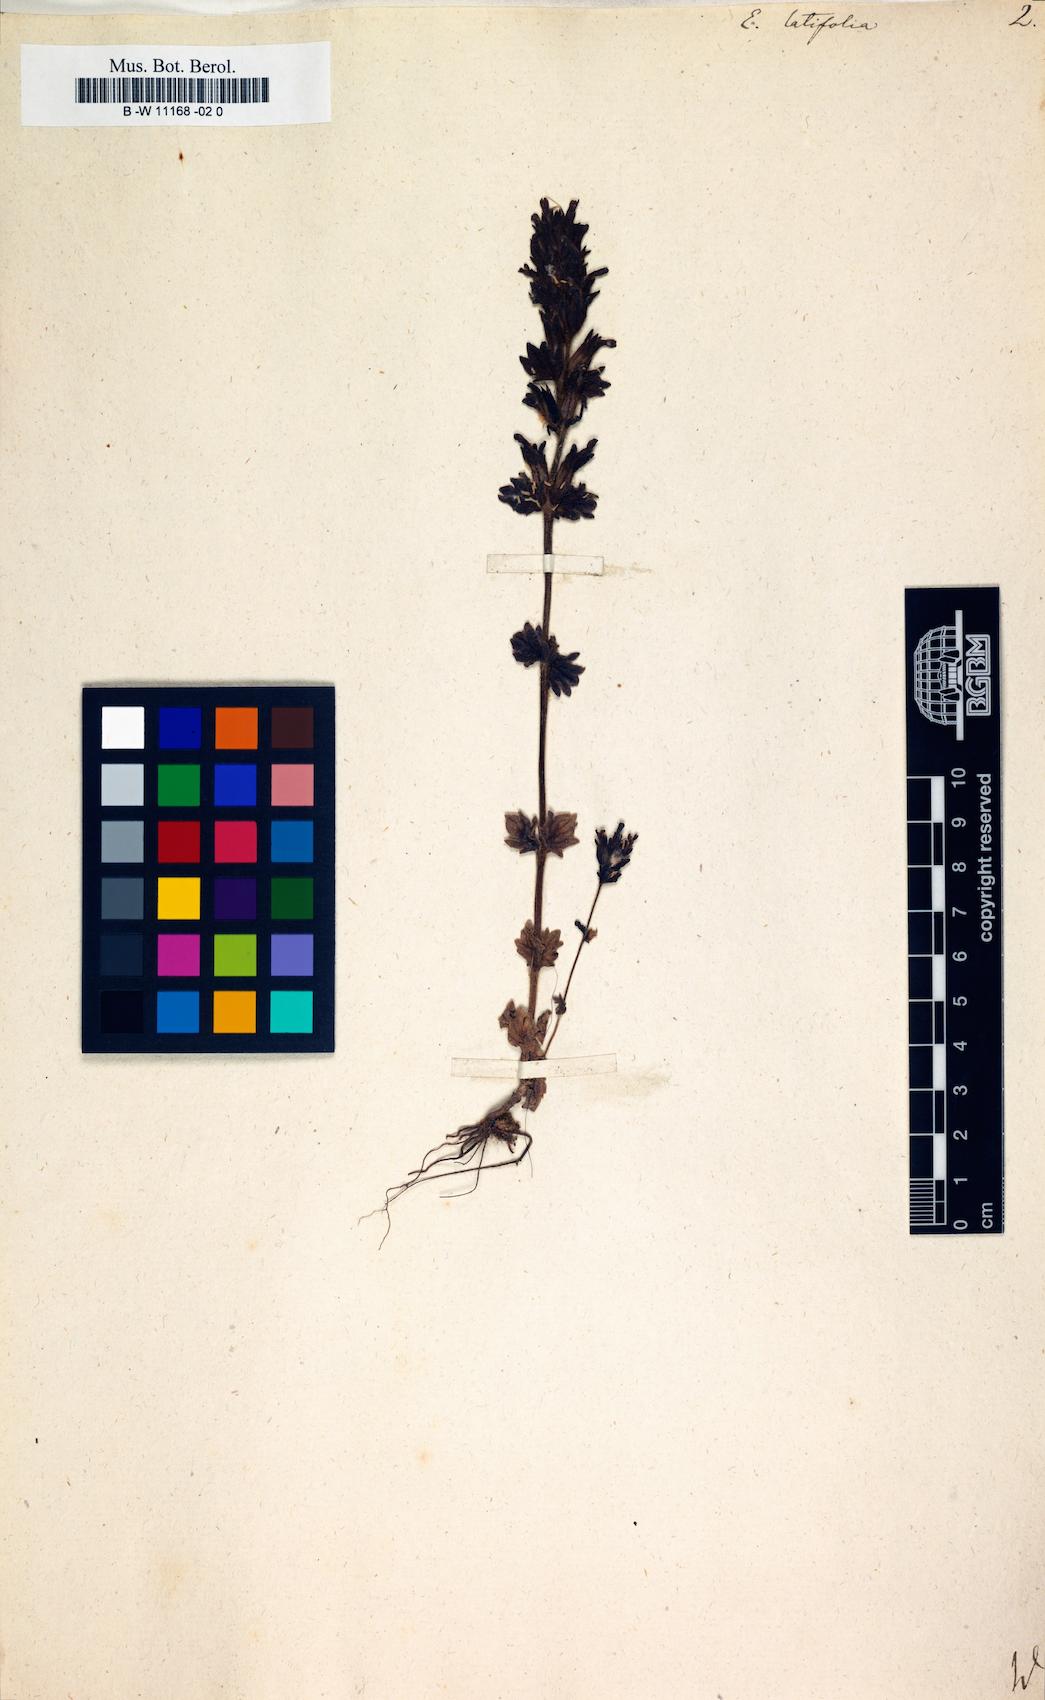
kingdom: Plantae
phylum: Tracheophyta
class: Magnoliopsida
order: Lamiales
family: Orobanchaceae
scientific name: Orobanchaceae
